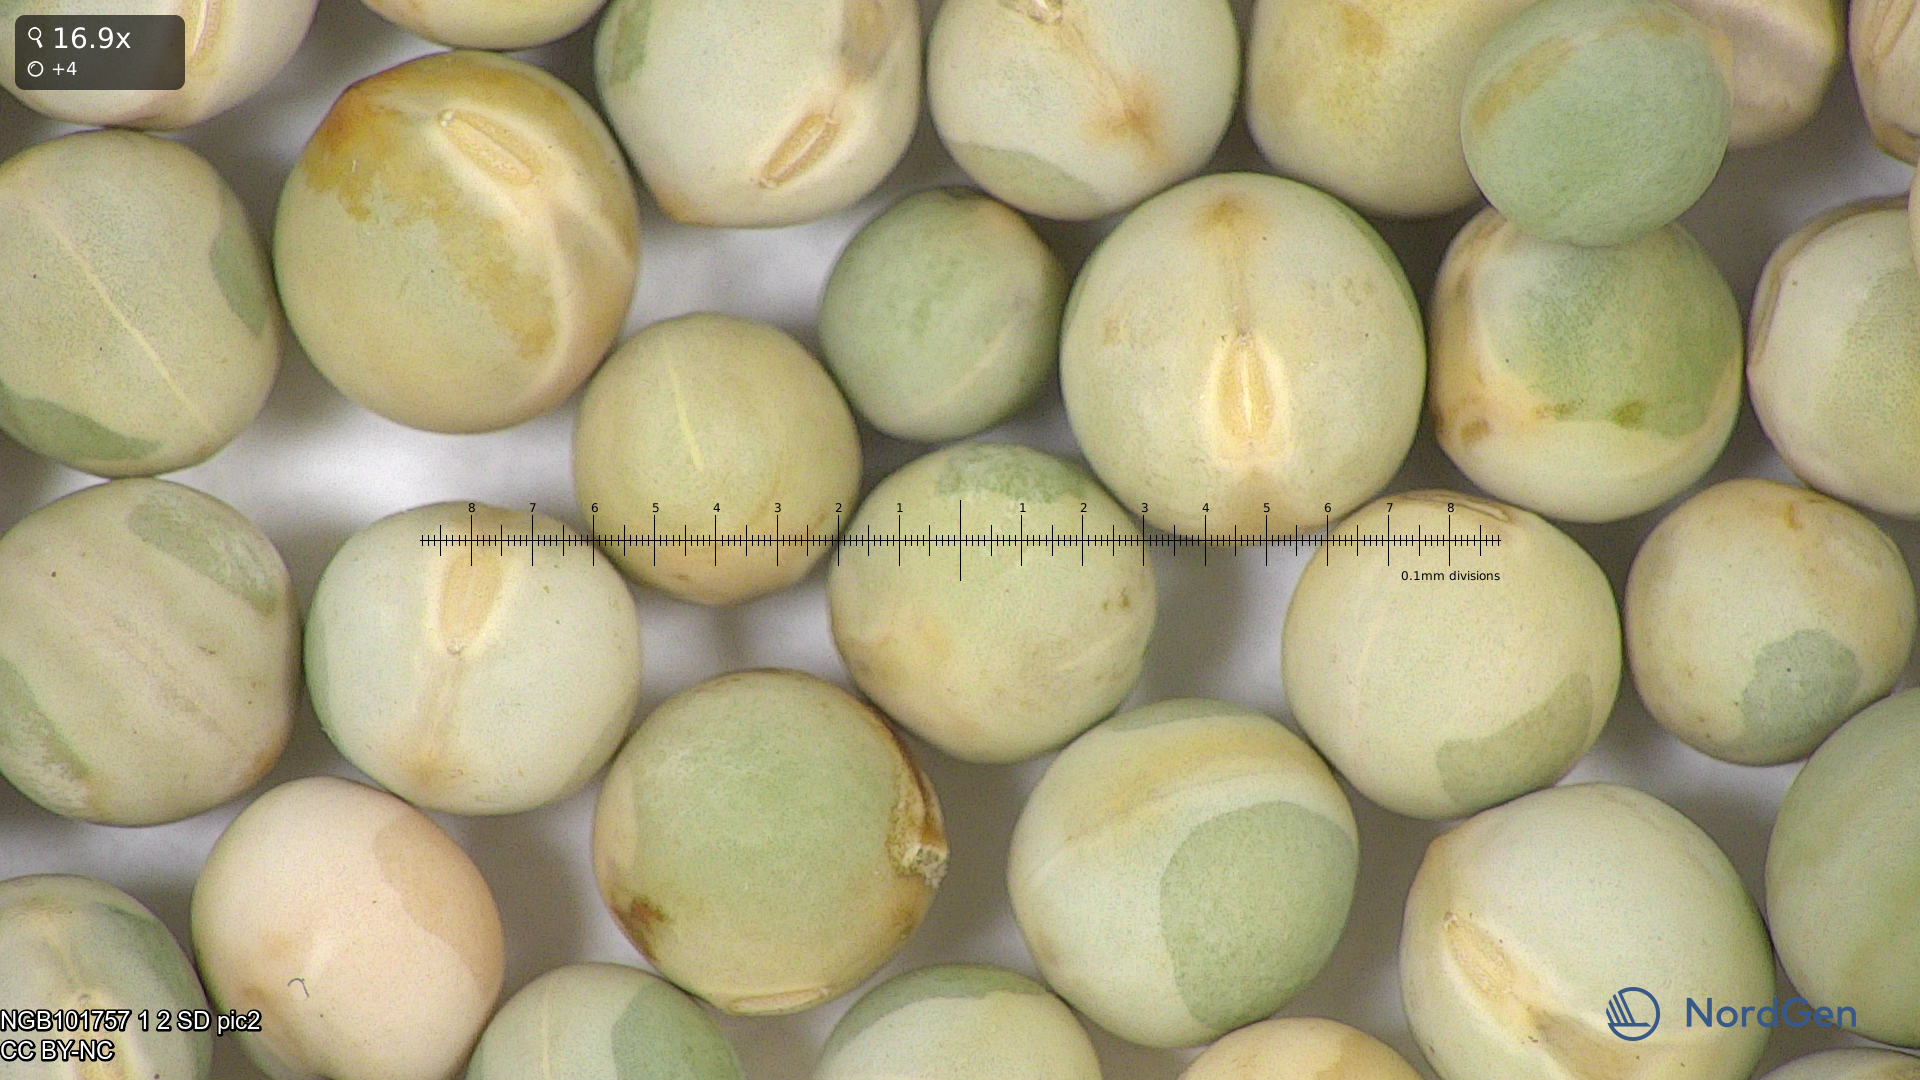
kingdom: Plantae
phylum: Tracheophyta
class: Magnoliopsida
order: Fabales
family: Fabaceae
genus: Lathyrus
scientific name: Lathyrus oleraceus
